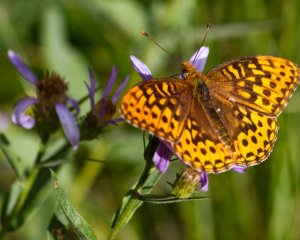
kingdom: Animalia
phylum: Arthropoda
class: Insecta
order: Lepidoptera
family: Nymphalidae
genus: Speyeria
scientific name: Speyeria hydaspe
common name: Hydaspe Fritillary
